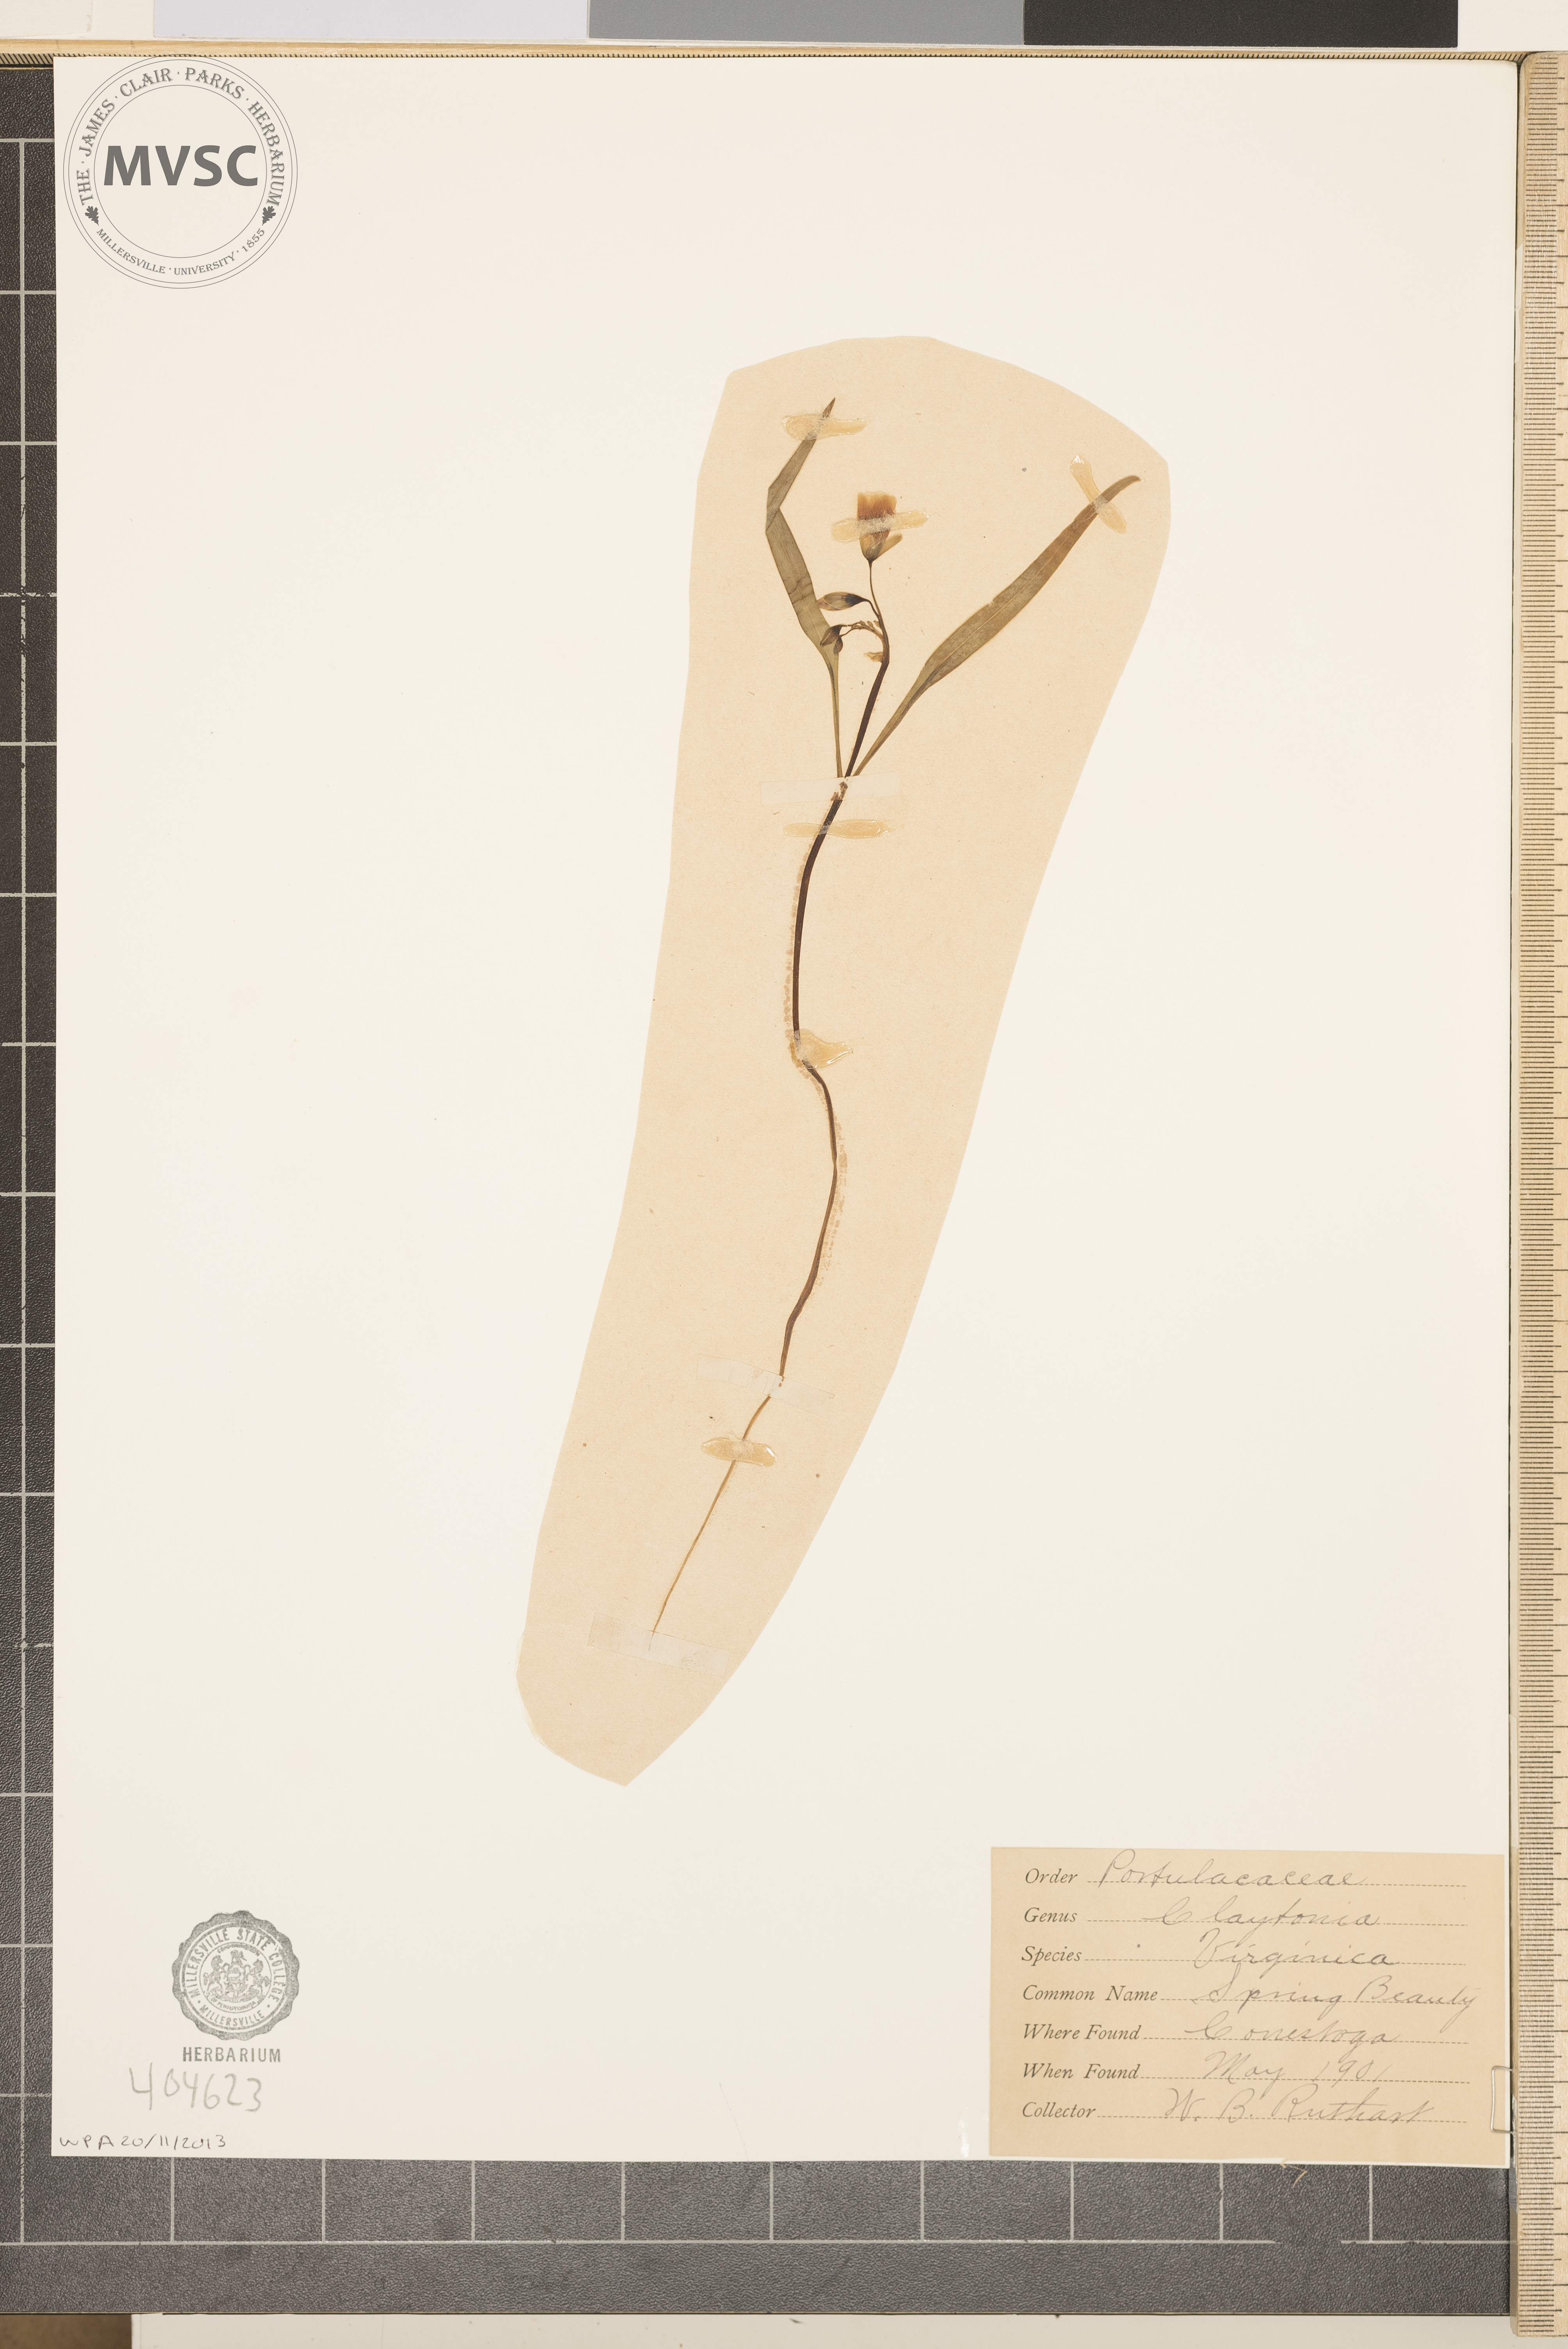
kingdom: Plantae
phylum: Tracheophyta
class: Magnoliopsida
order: Caryophyllales
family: Montiaceae
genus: Claytonia
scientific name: Claytonia virginica
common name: Spring Beauty
